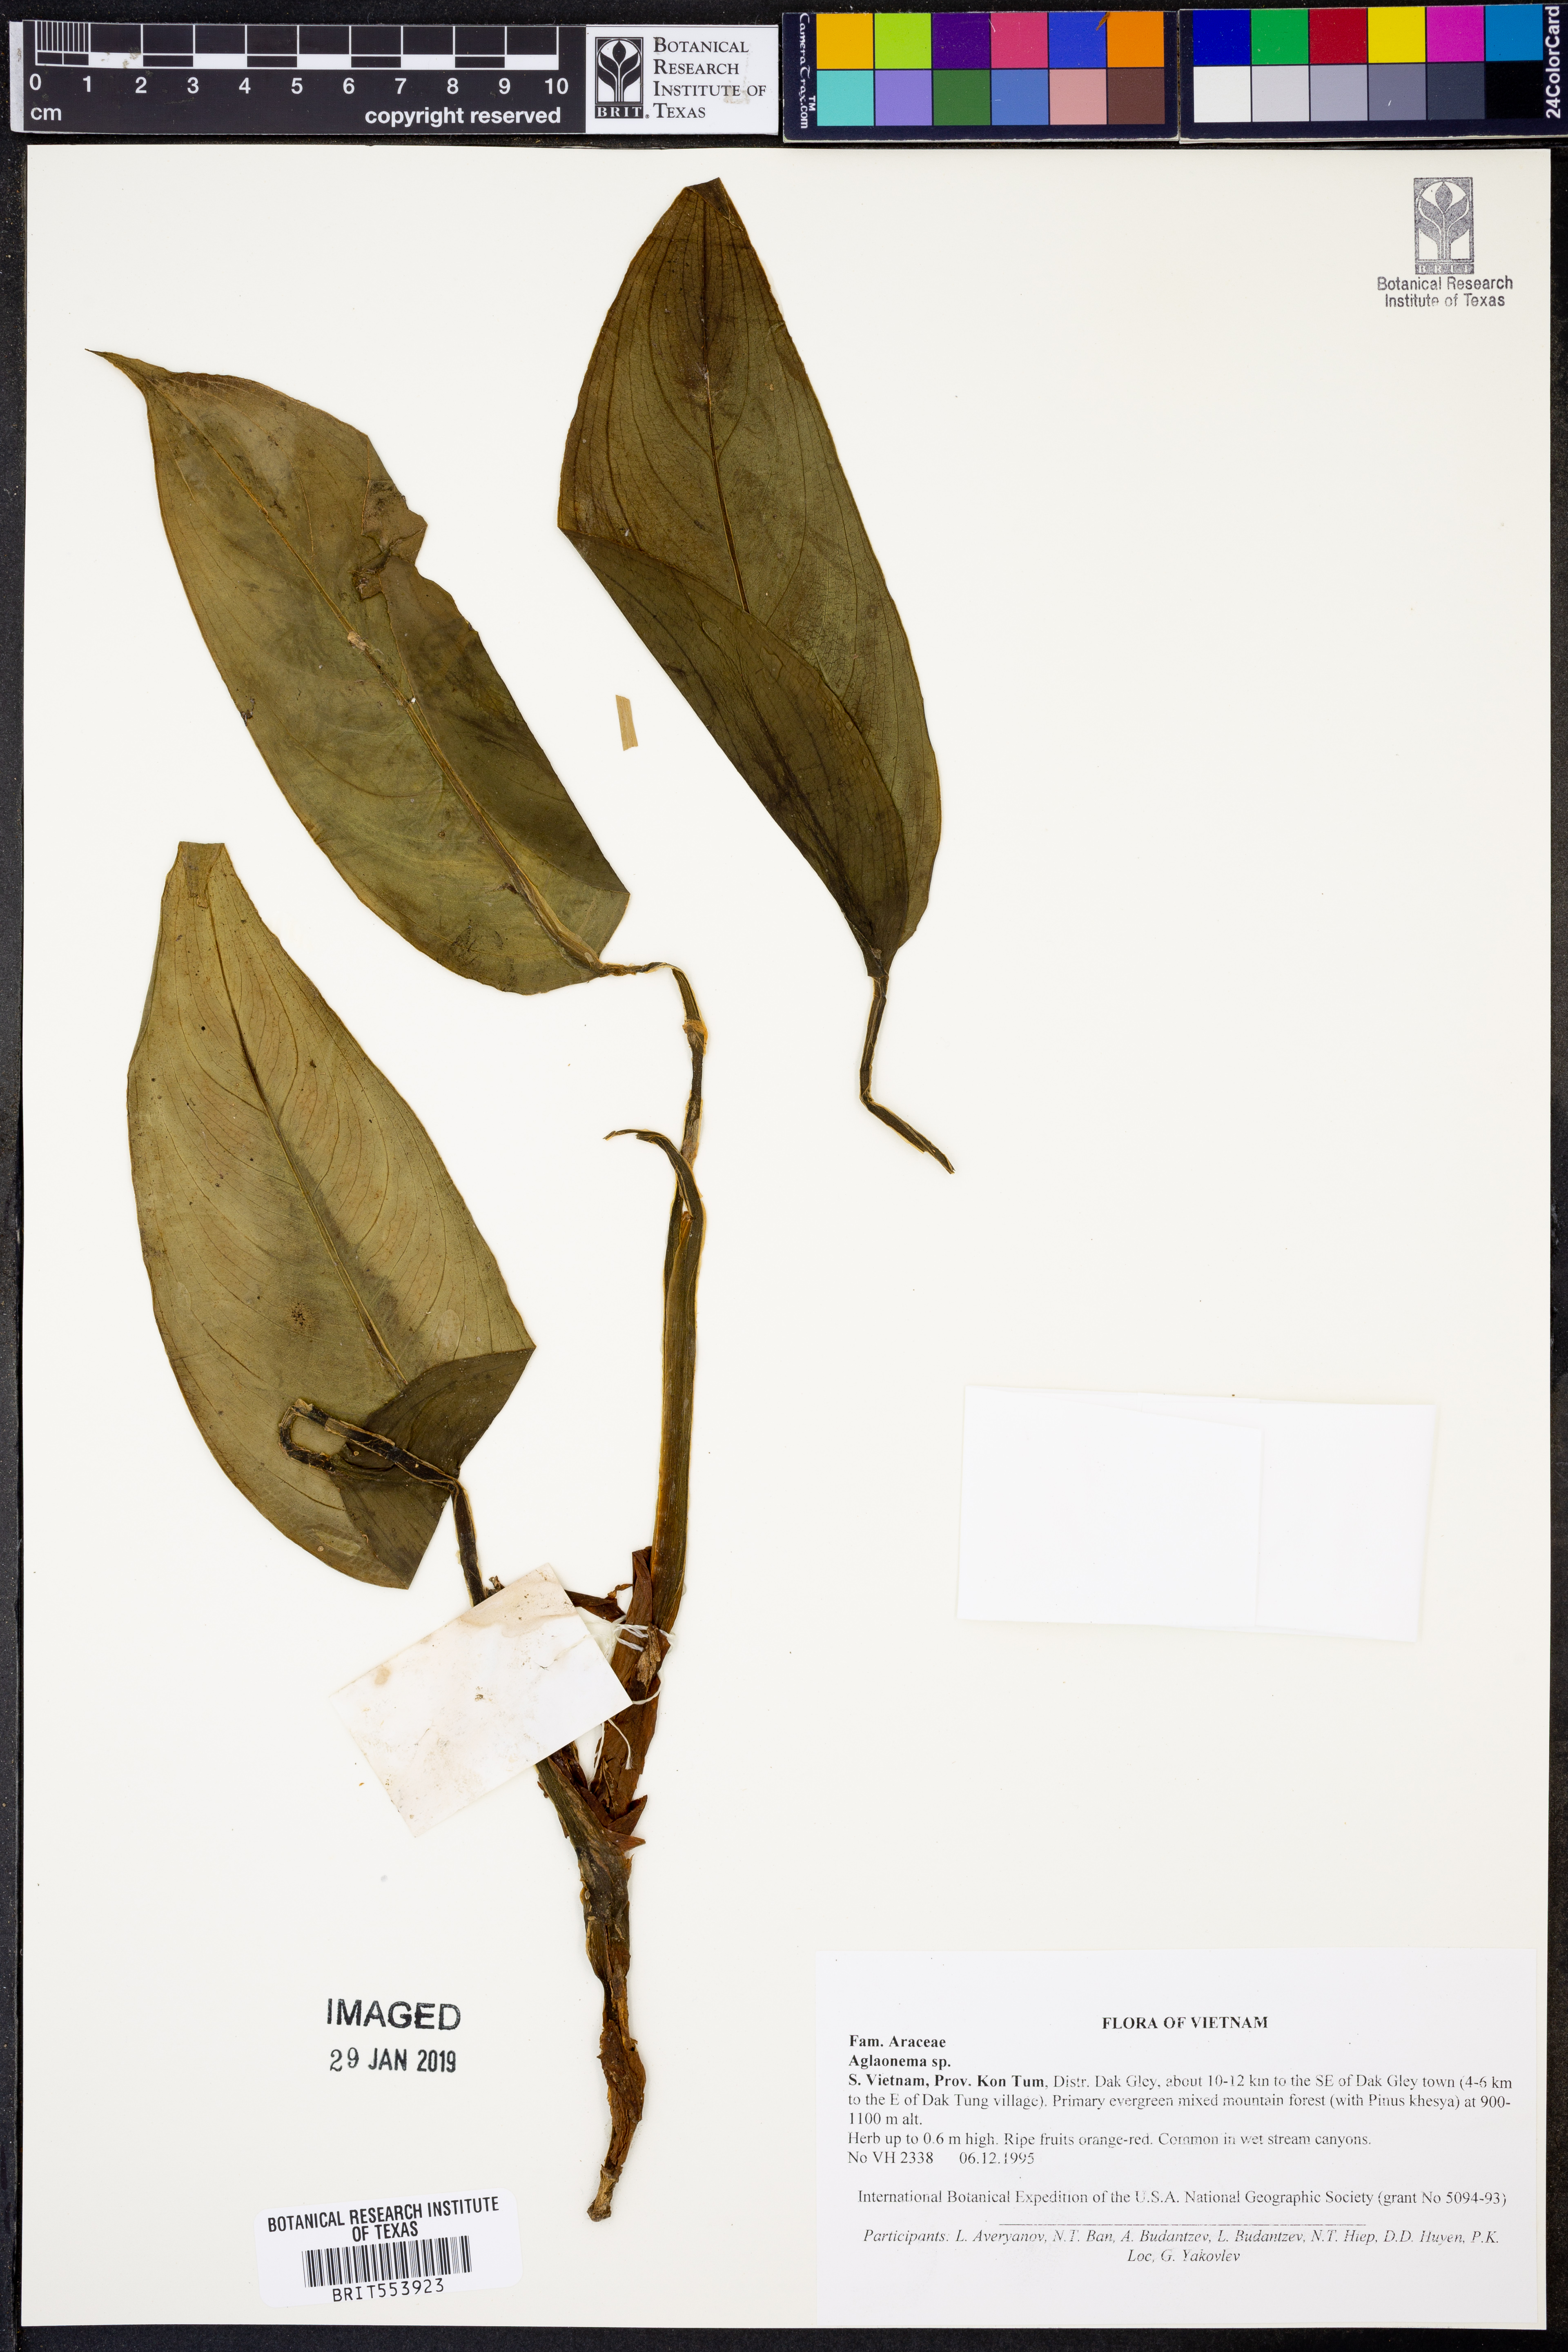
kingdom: Plantae
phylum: Tracheophyta
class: Liliopsida
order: Alismatales
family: Araceae
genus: Aglaonema
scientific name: Aglaonema
